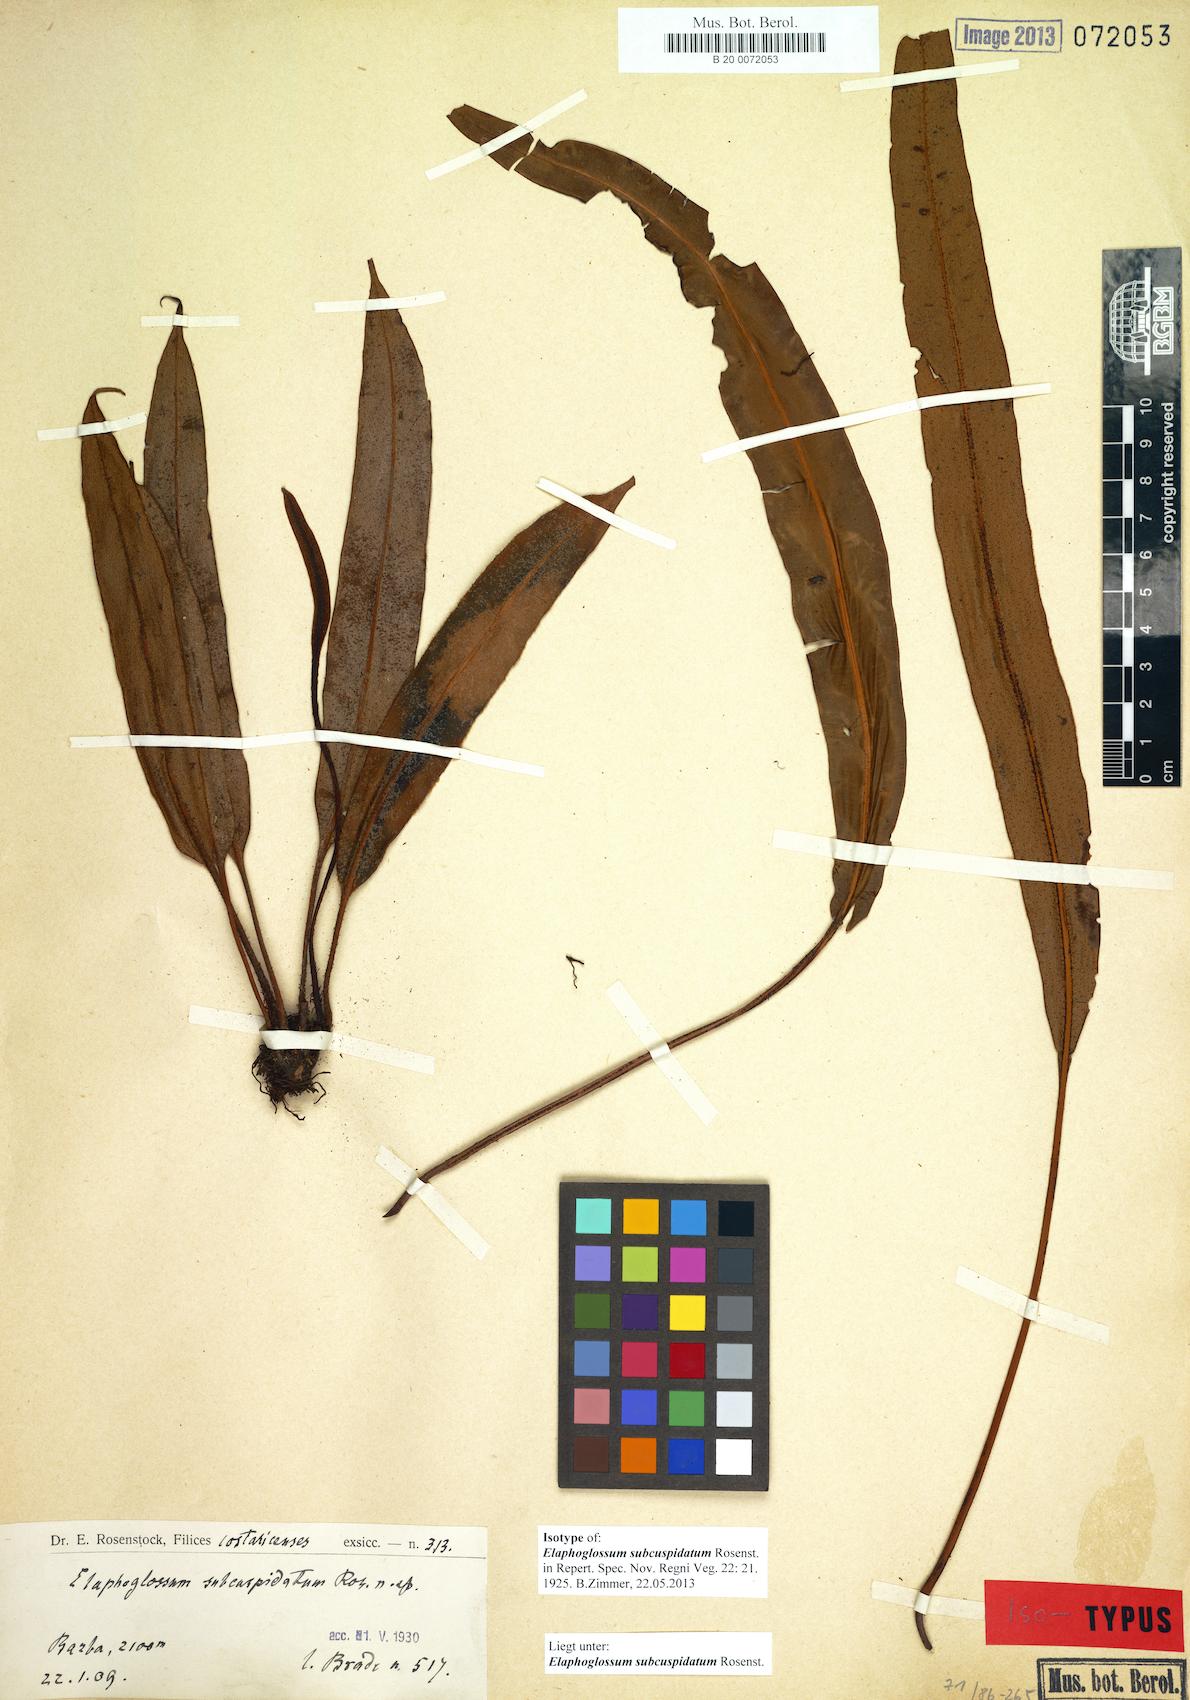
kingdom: Plantae
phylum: Tracheophyta
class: Polypodiopsida
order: Polypodiales
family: Dryopteridaceae
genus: Elaphoglossum
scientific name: Elaphoglossum cuspidatum
